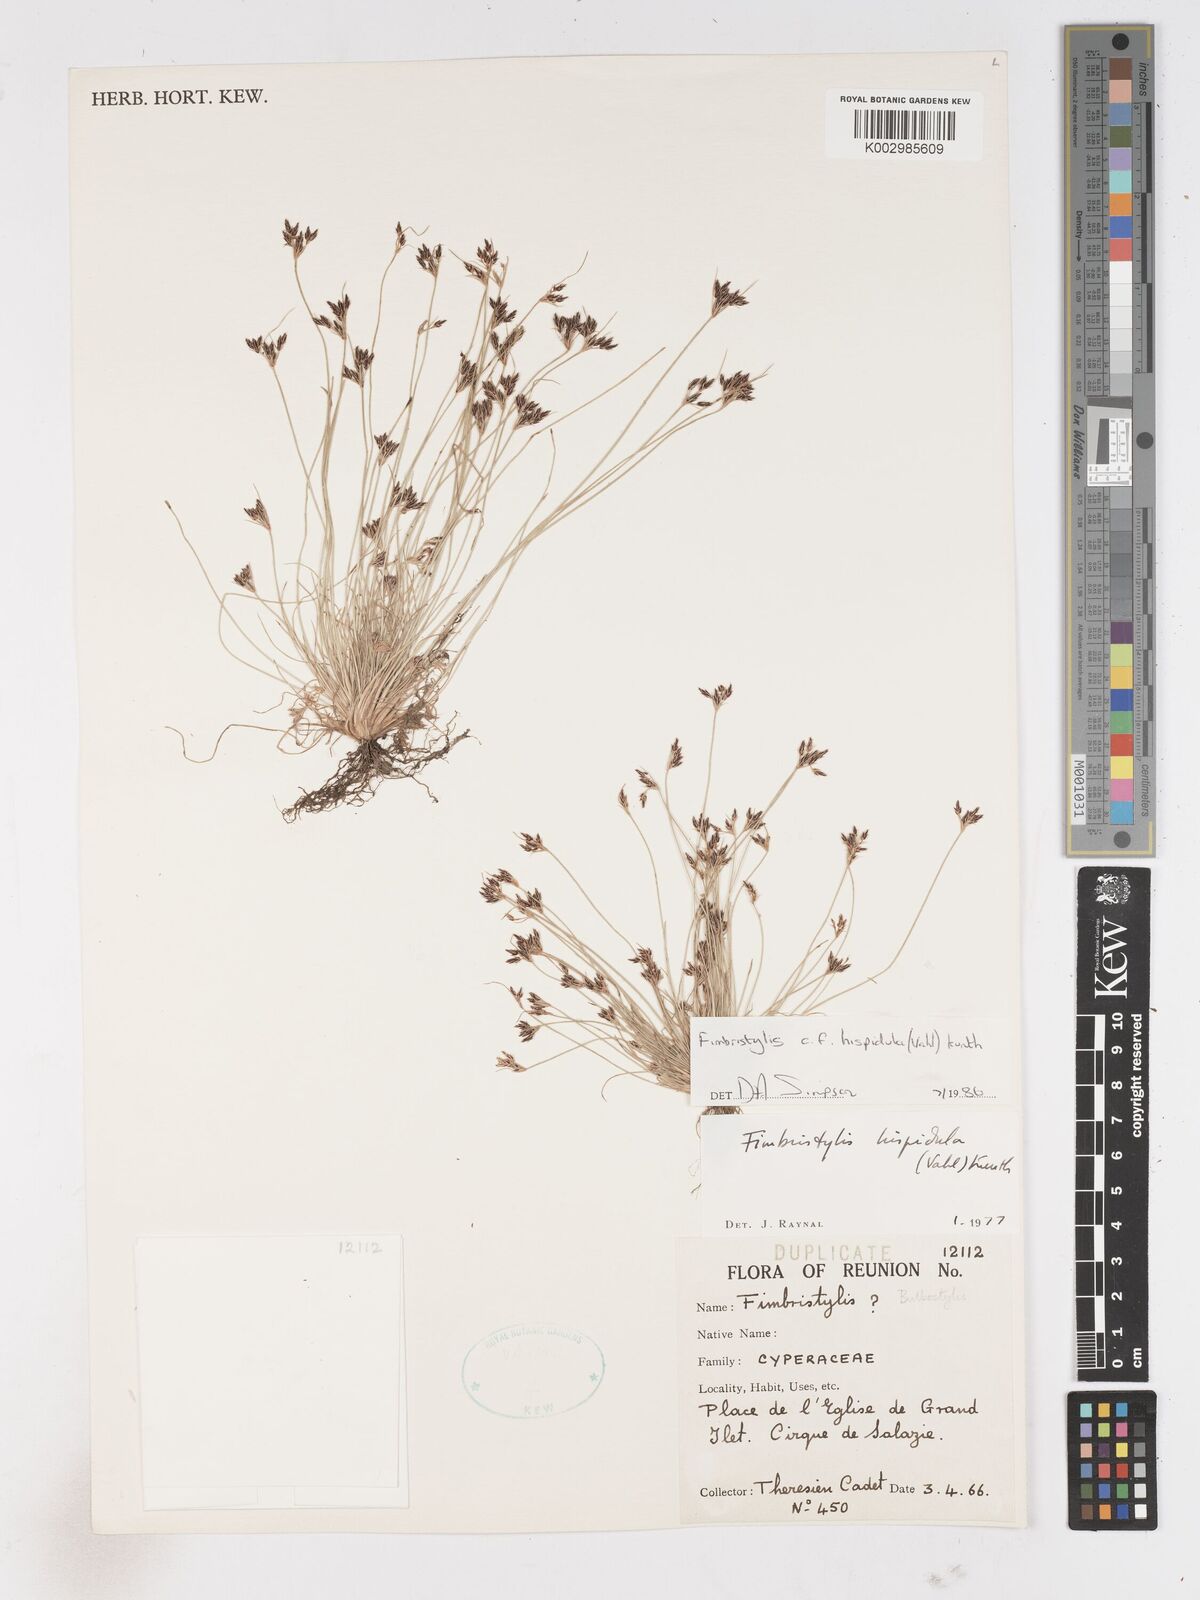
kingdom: Plantae
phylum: Tracheophyta
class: Liliopsida
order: Poales
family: Cyperaceae
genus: Bulbostylis
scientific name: Bulbostylis hispidula
